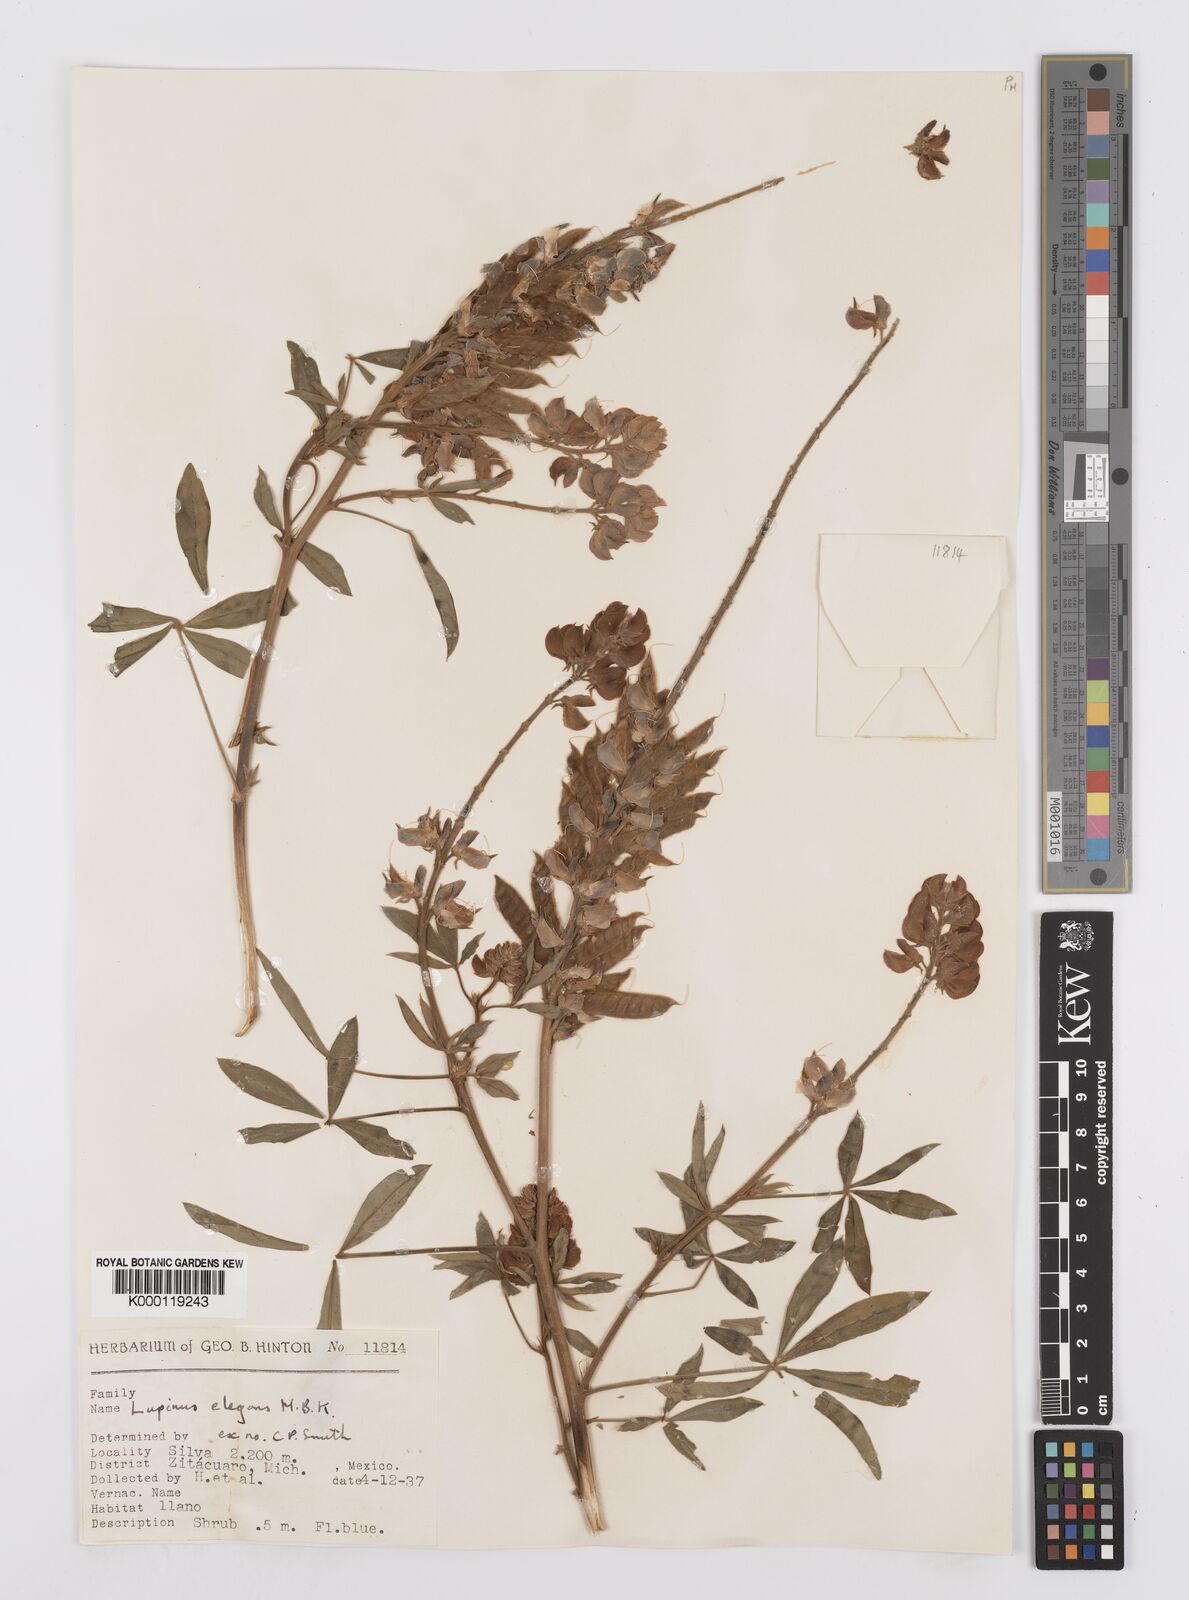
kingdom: Plantae
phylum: Tracheophyta
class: Magnoliopsida
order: Fabales
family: Fabaceae
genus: Lupinus
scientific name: Lupinus elegans
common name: Mexican lupine
